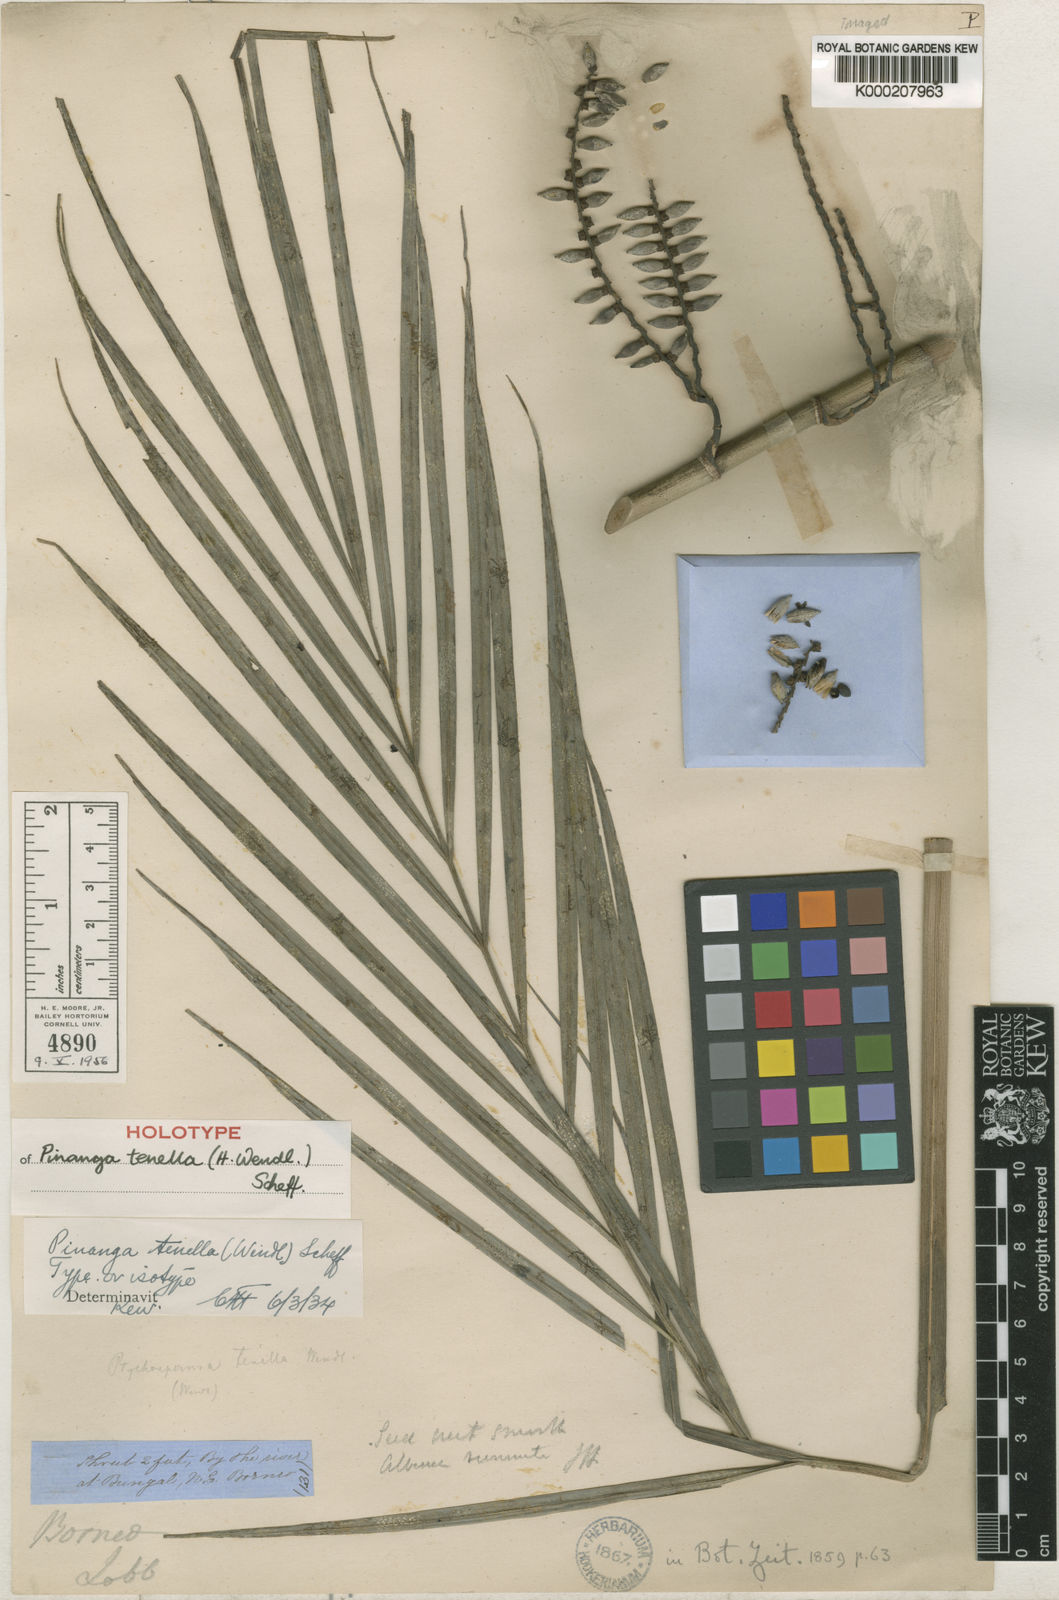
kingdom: Plantae
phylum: Tracheophyta
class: Liliopsida
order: Arecales
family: Arecaceae
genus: Pinanga
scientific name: Pinanga tenella
